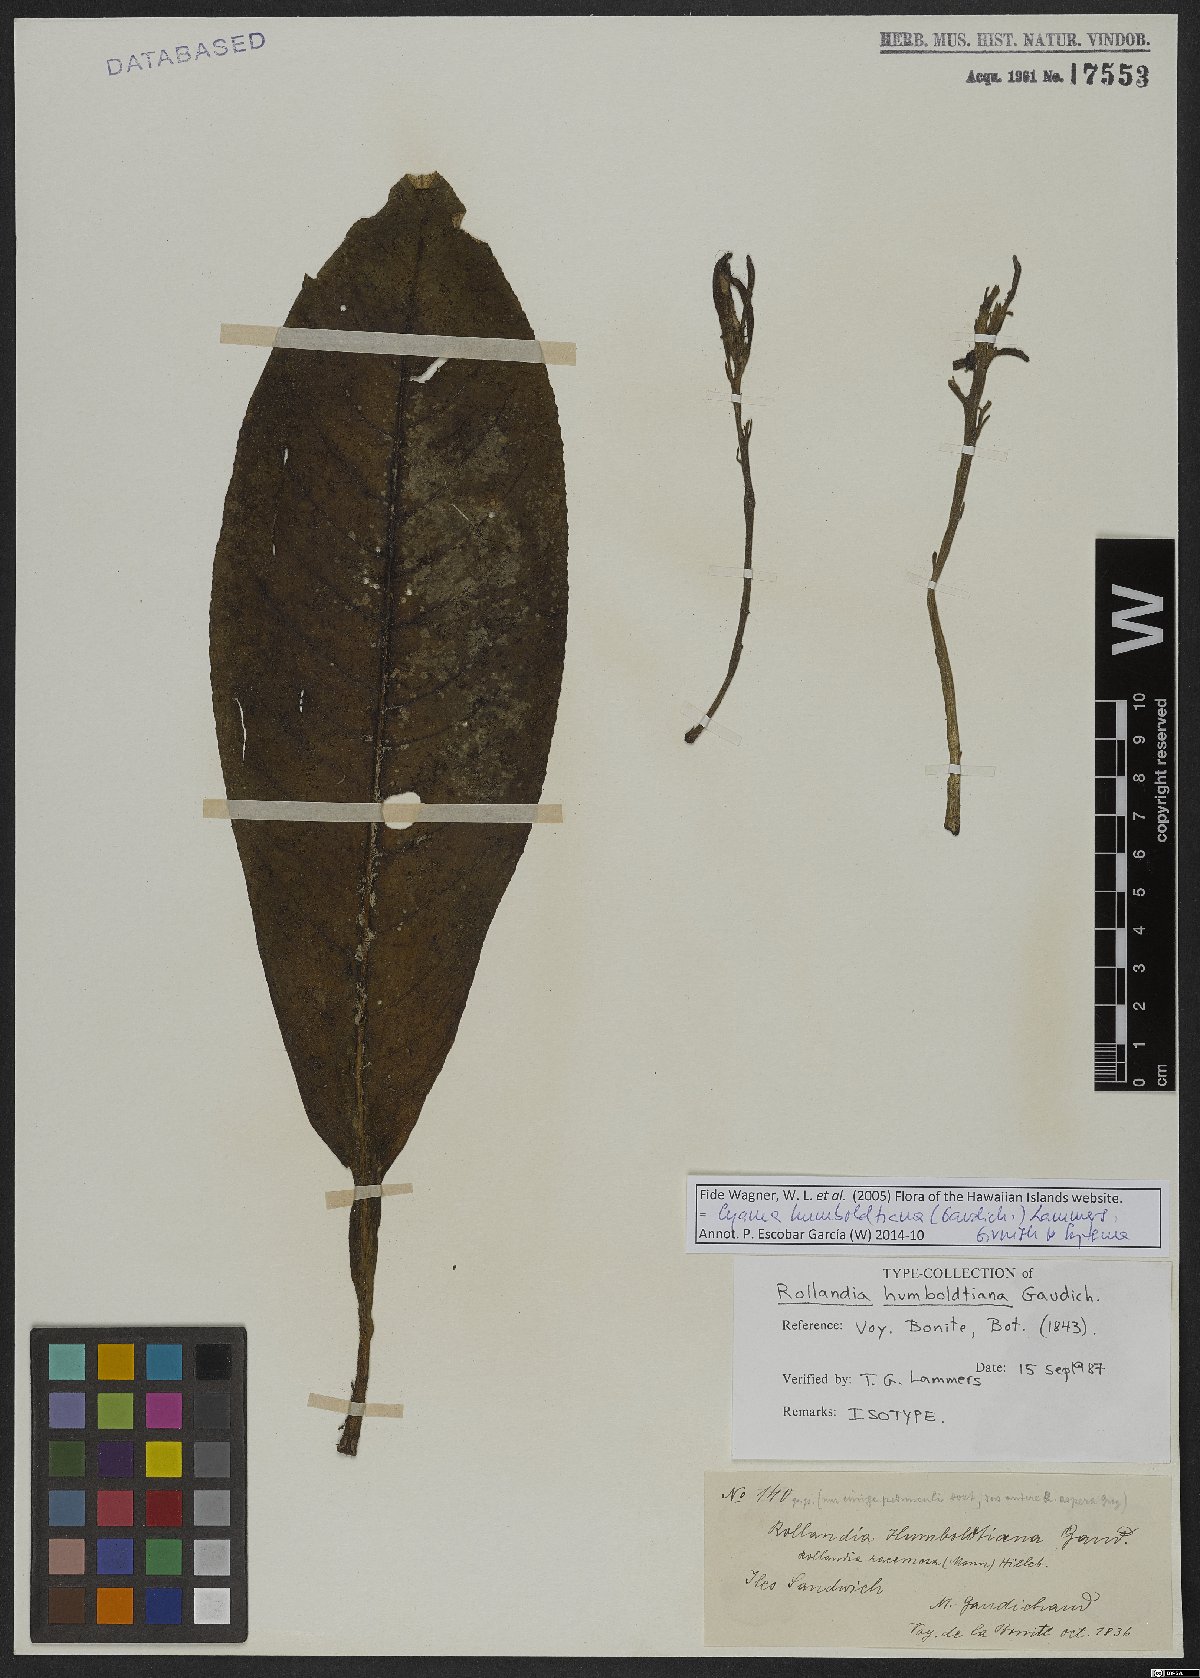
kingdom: Plantae
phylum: Tracheophyta
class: Magnoliopsida
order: Asterales
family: Campanulaceae
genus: Cyanea
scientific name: Cyanea humboldtiana
